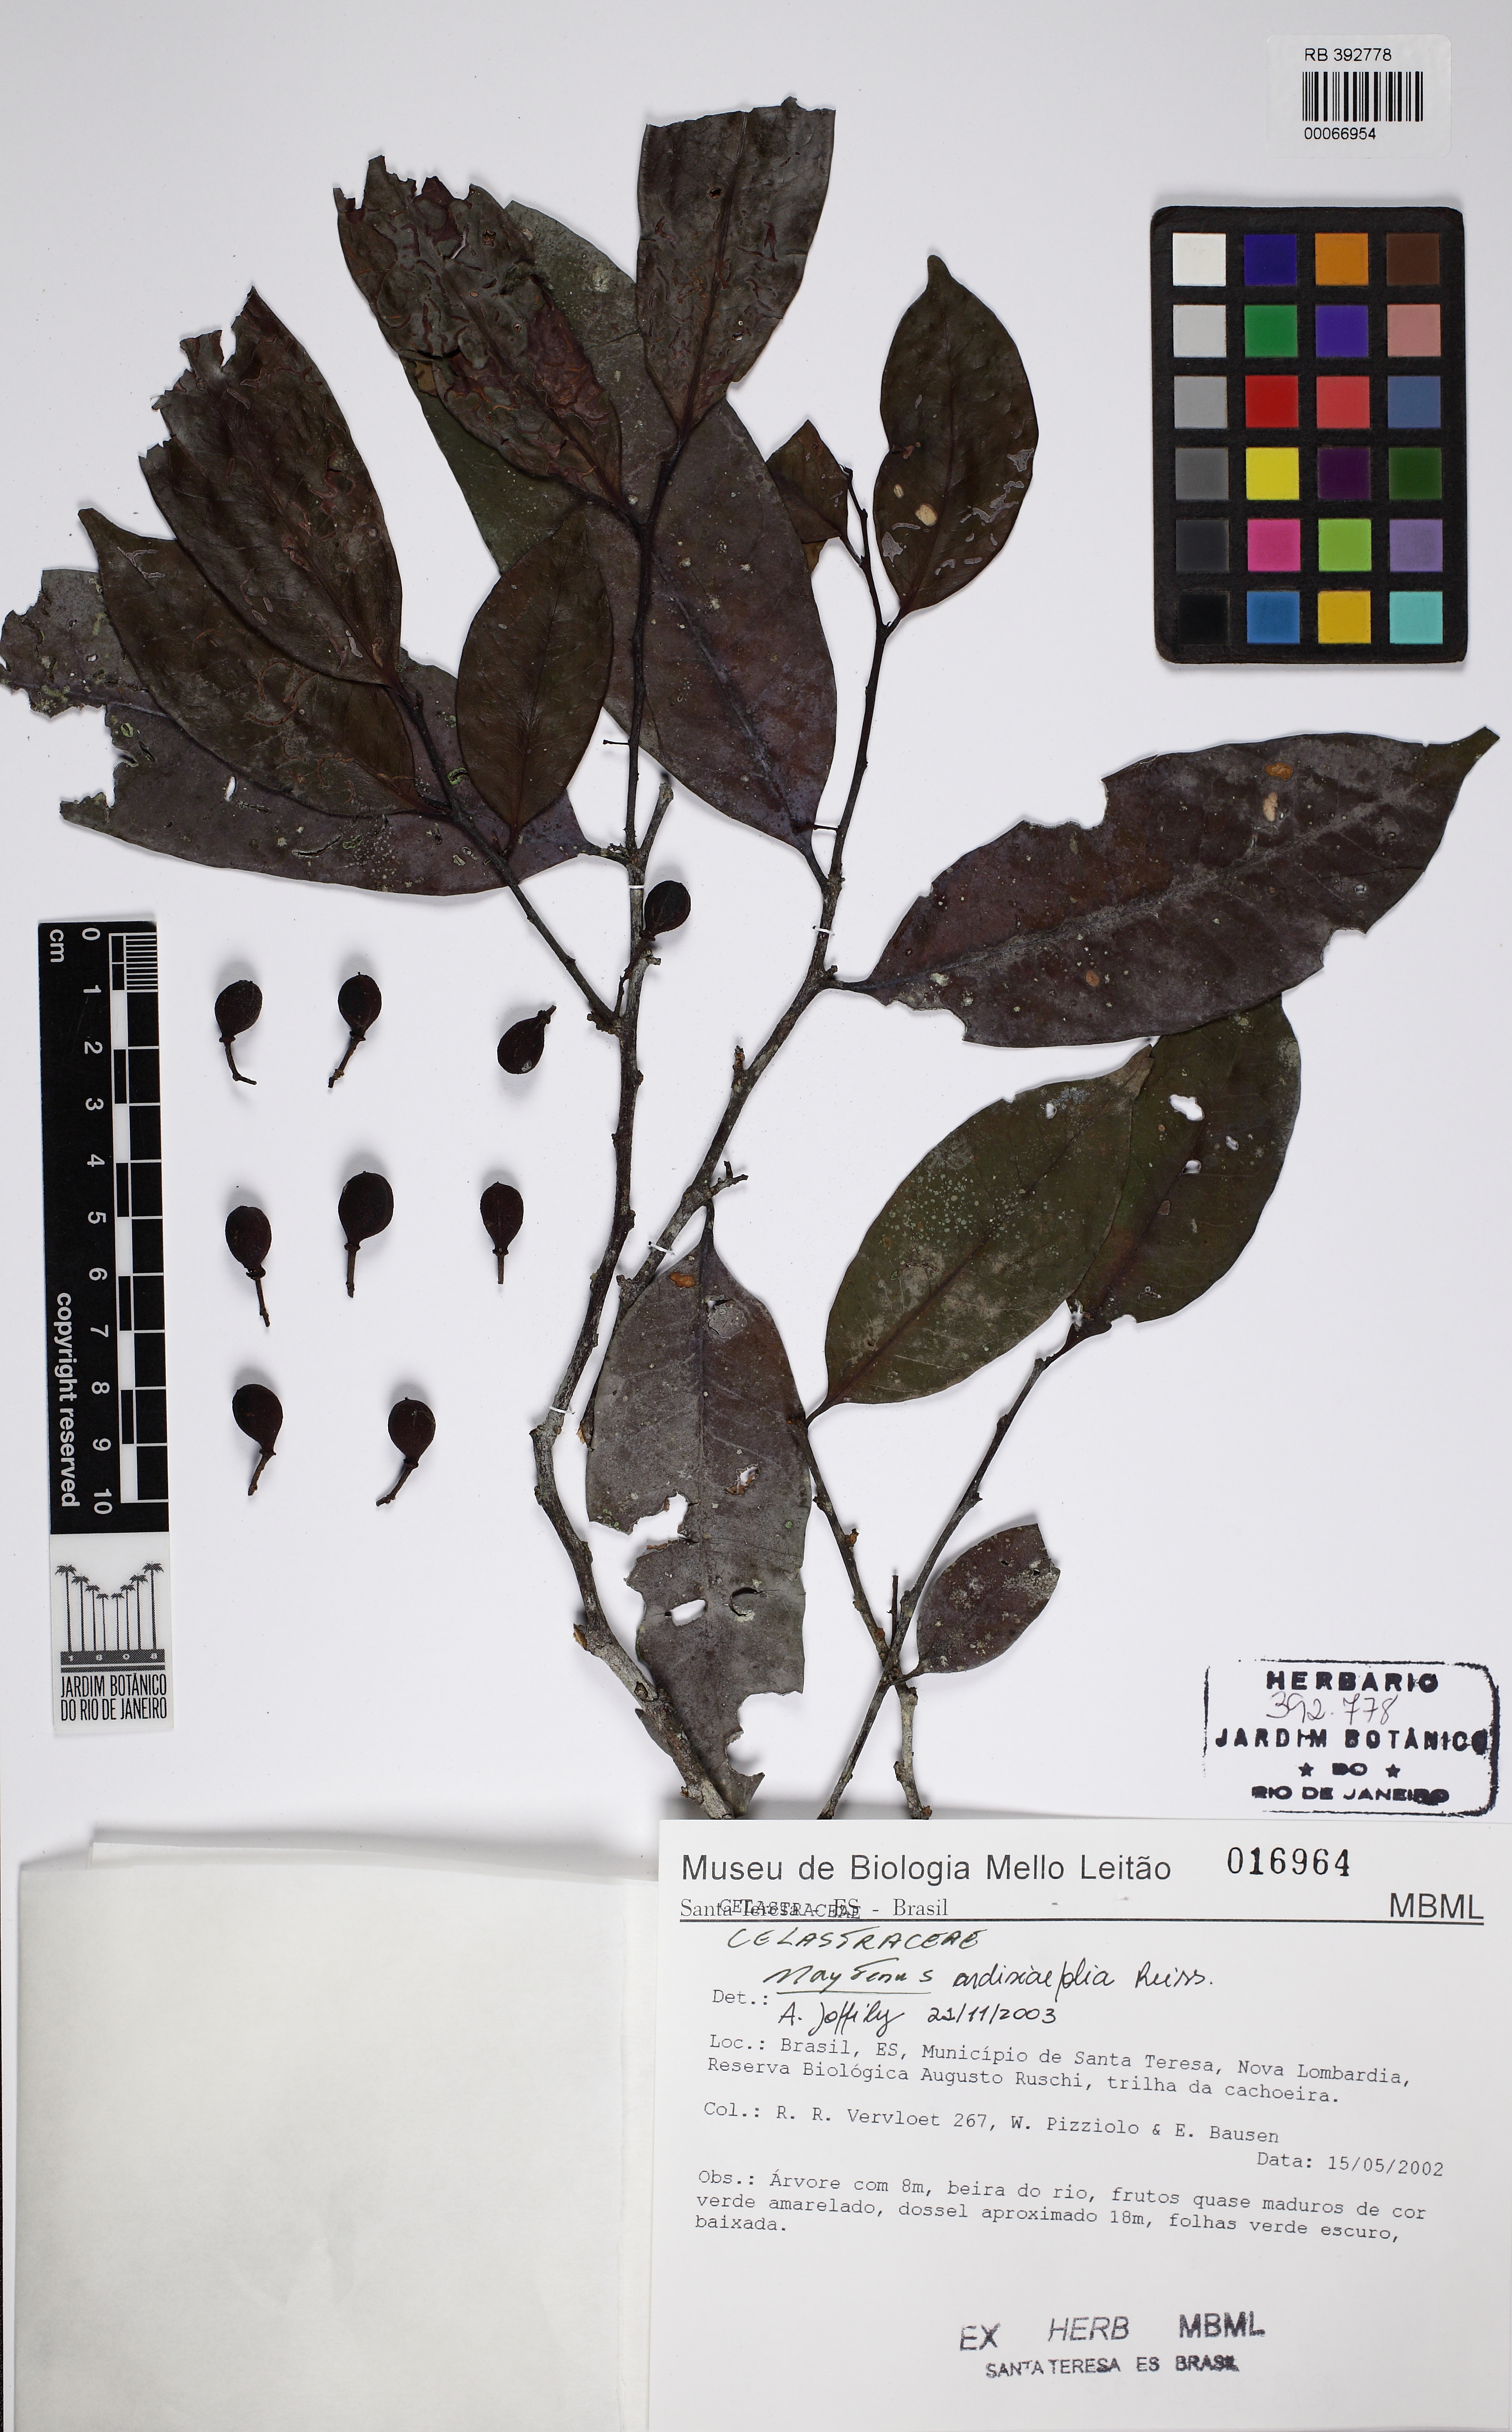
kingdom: Plantae
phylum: Tracheophyta
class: Magnoliopsida
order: Celastrales
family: Celastraceae
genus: Monteverdia
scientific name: Monteverdia brasiliensis
